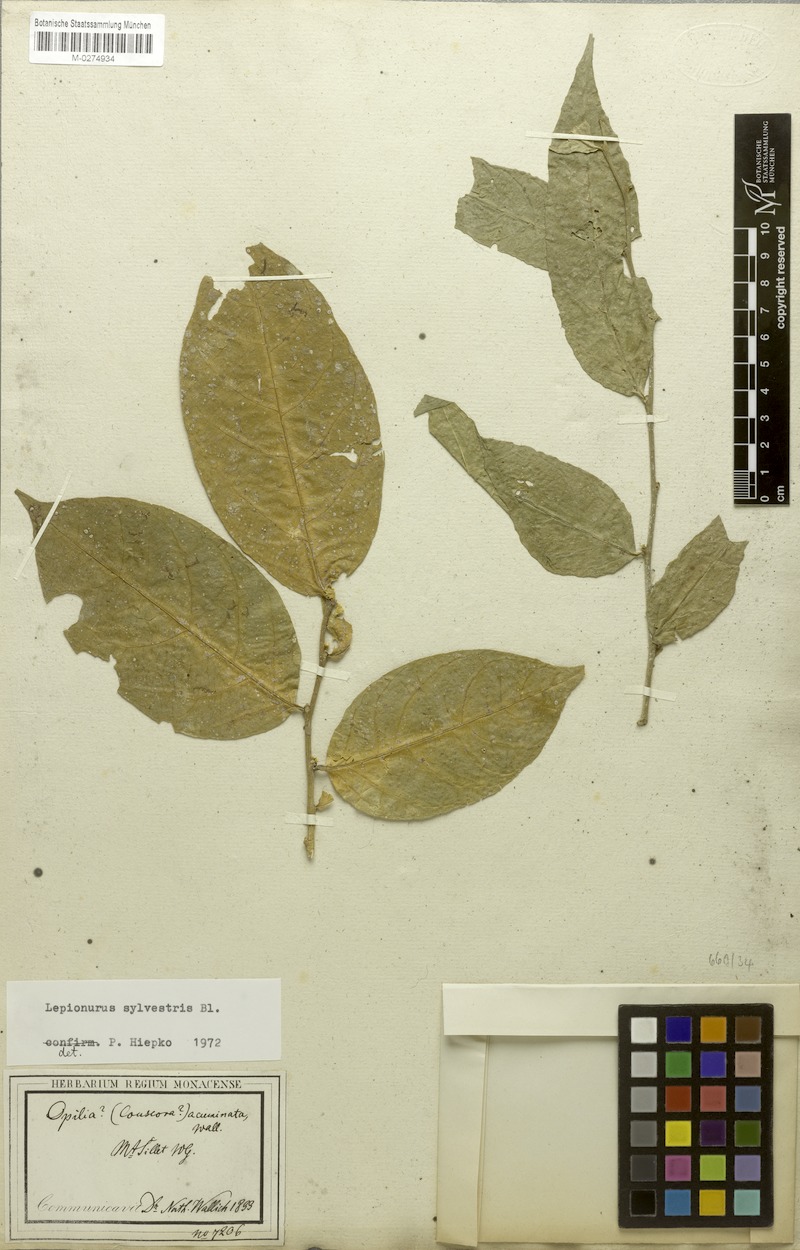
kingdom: Plantae
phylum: Tracheophyta
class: Magnoliopsida
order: Santalales
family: Opiliaceae
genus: Lepionurus
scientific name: Lepionurus sylvestris
